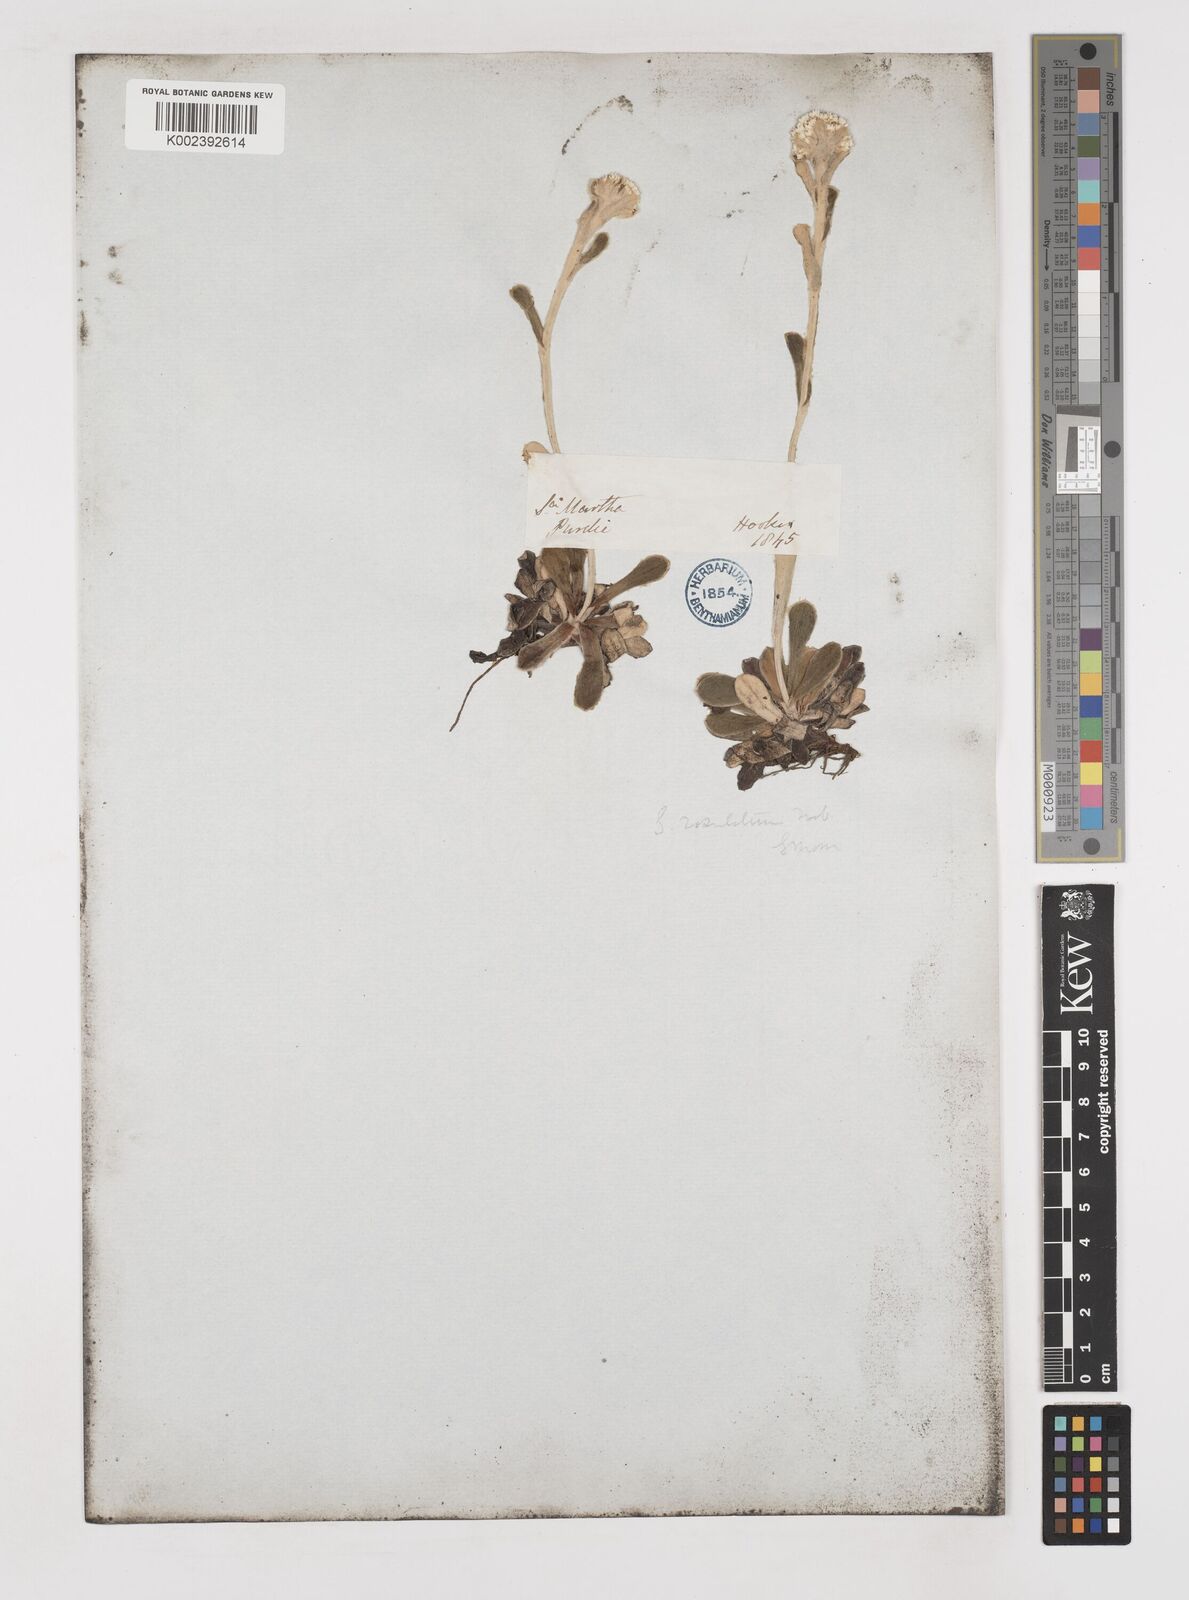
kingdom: Plantae
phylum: Tracheophyta
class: Magnoliopsida
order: Asterales
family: Asteraceae
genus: Gnaphalium
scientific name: Gnaphalium rosulatum
